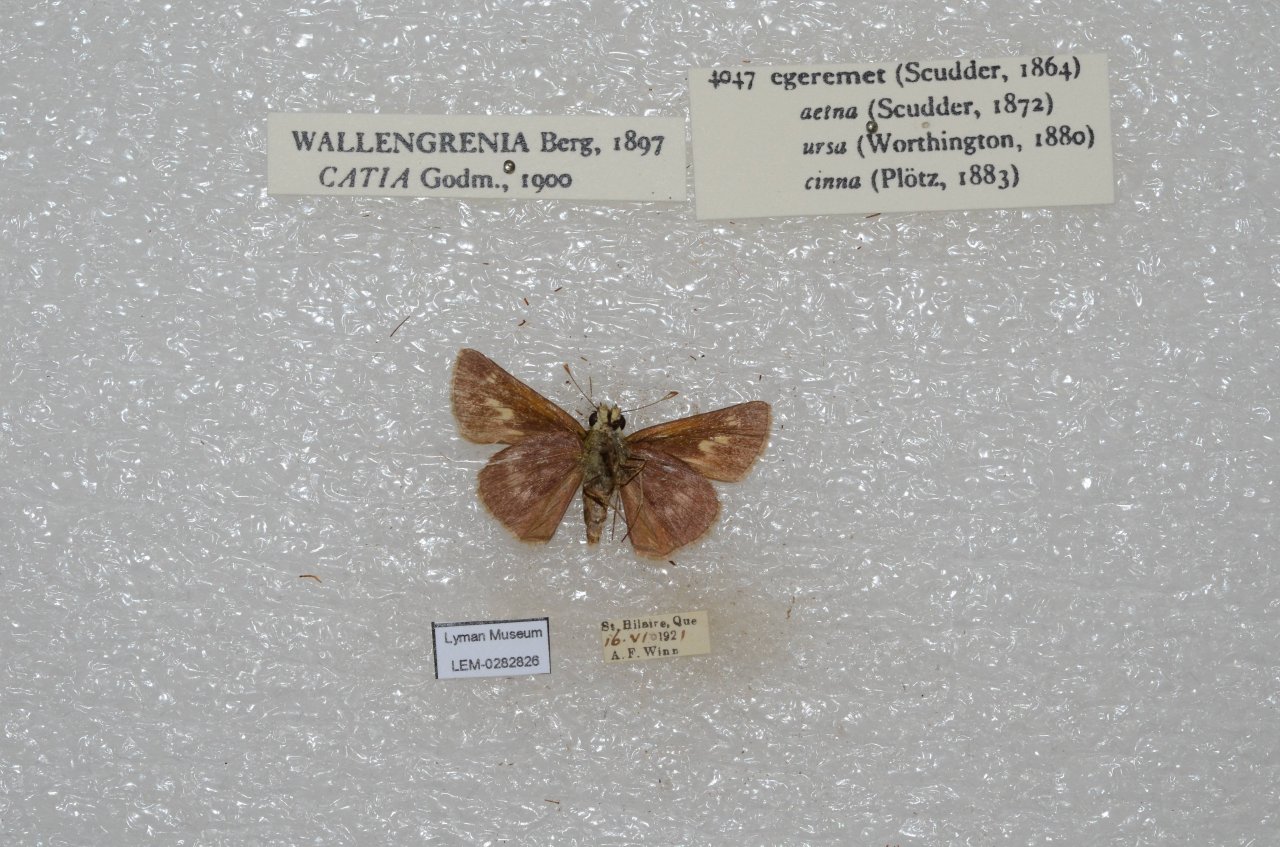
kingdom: Animalia
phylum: Arthropoda
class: Insecta
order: Lepidoptera
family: Hesperiidae
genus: Polites
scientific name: Polites egeremet
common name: Northern Broken-Dash
